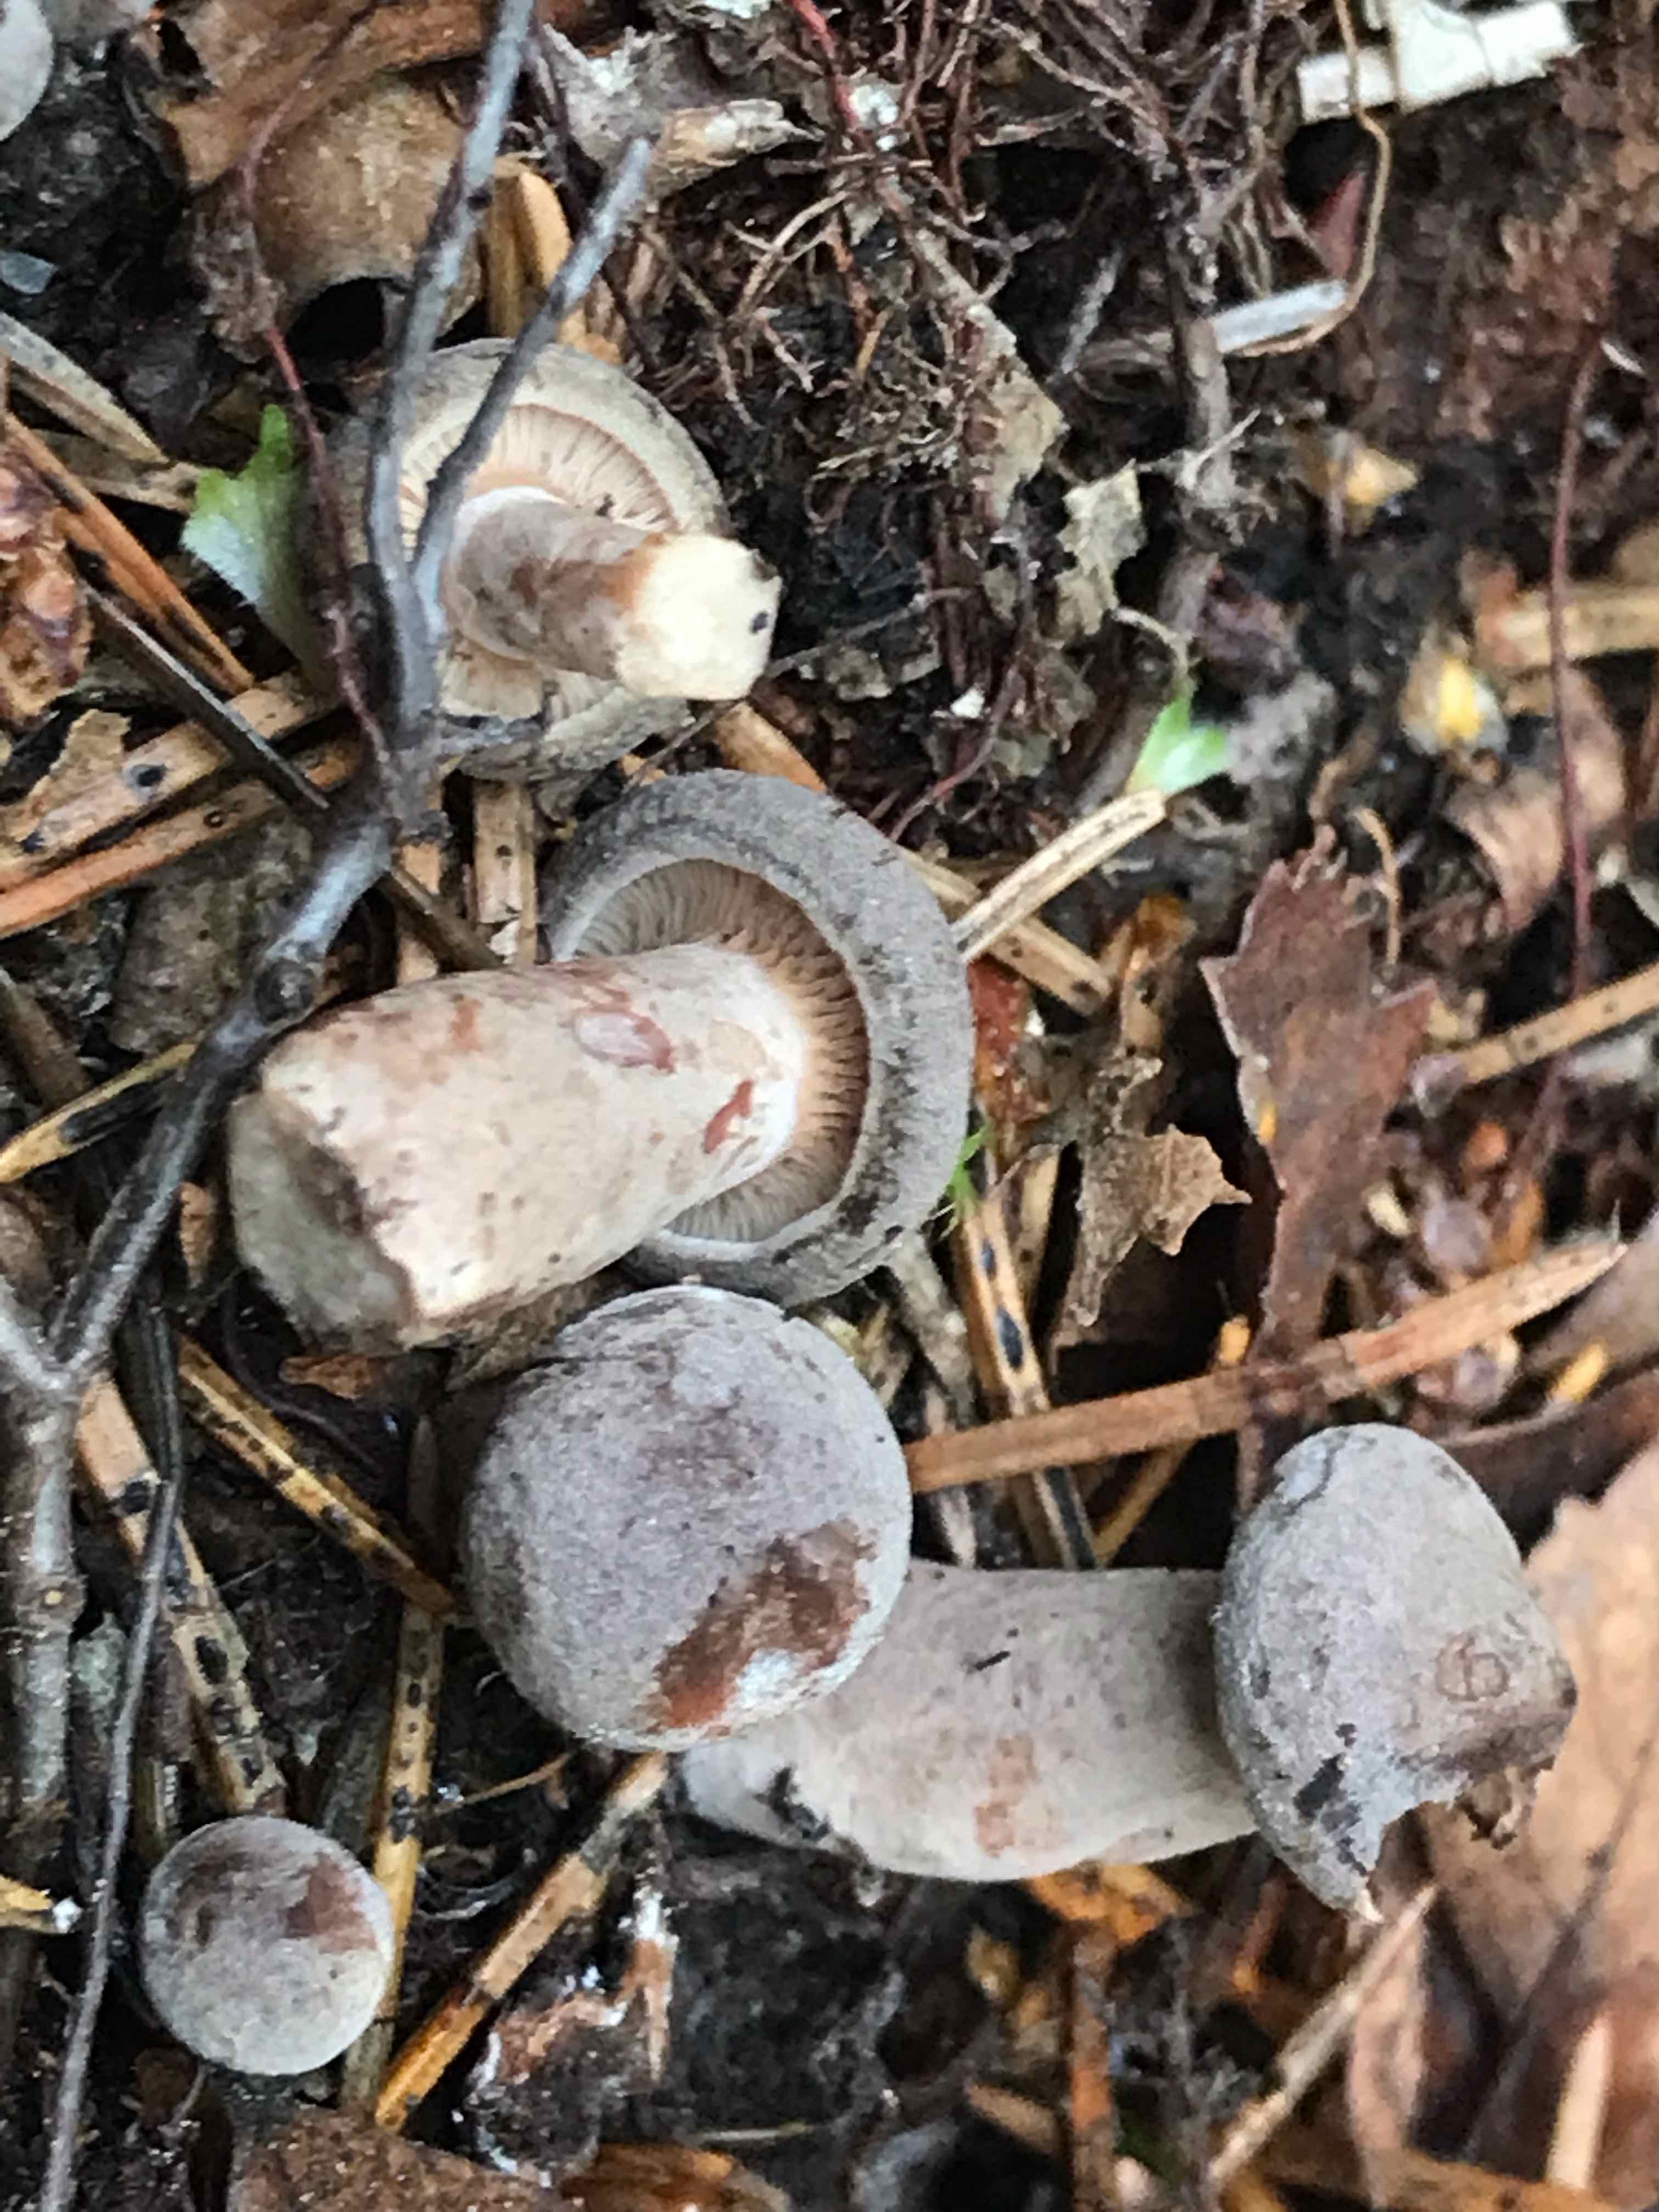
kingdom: Fungi
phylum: Basidiomycota
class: Agaricomycetes
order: Russulales
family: Russulaceae
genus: Lactarius
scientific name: Lactarius mammosus
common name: kokosbrun mælkehat
